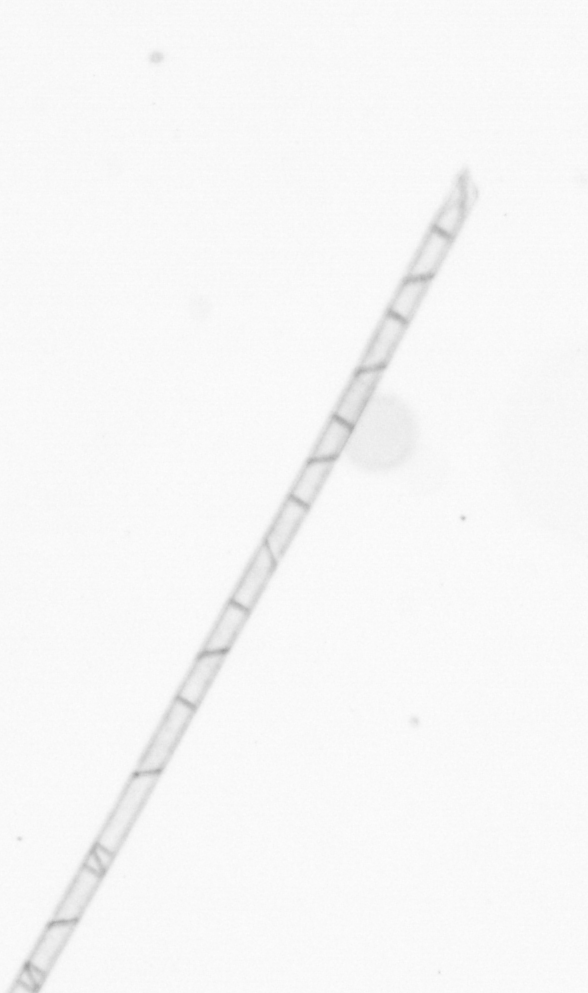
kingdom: Chromista
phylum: Ochrophyta
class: Bacillariophyceae
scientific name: Bacillariophyceae
